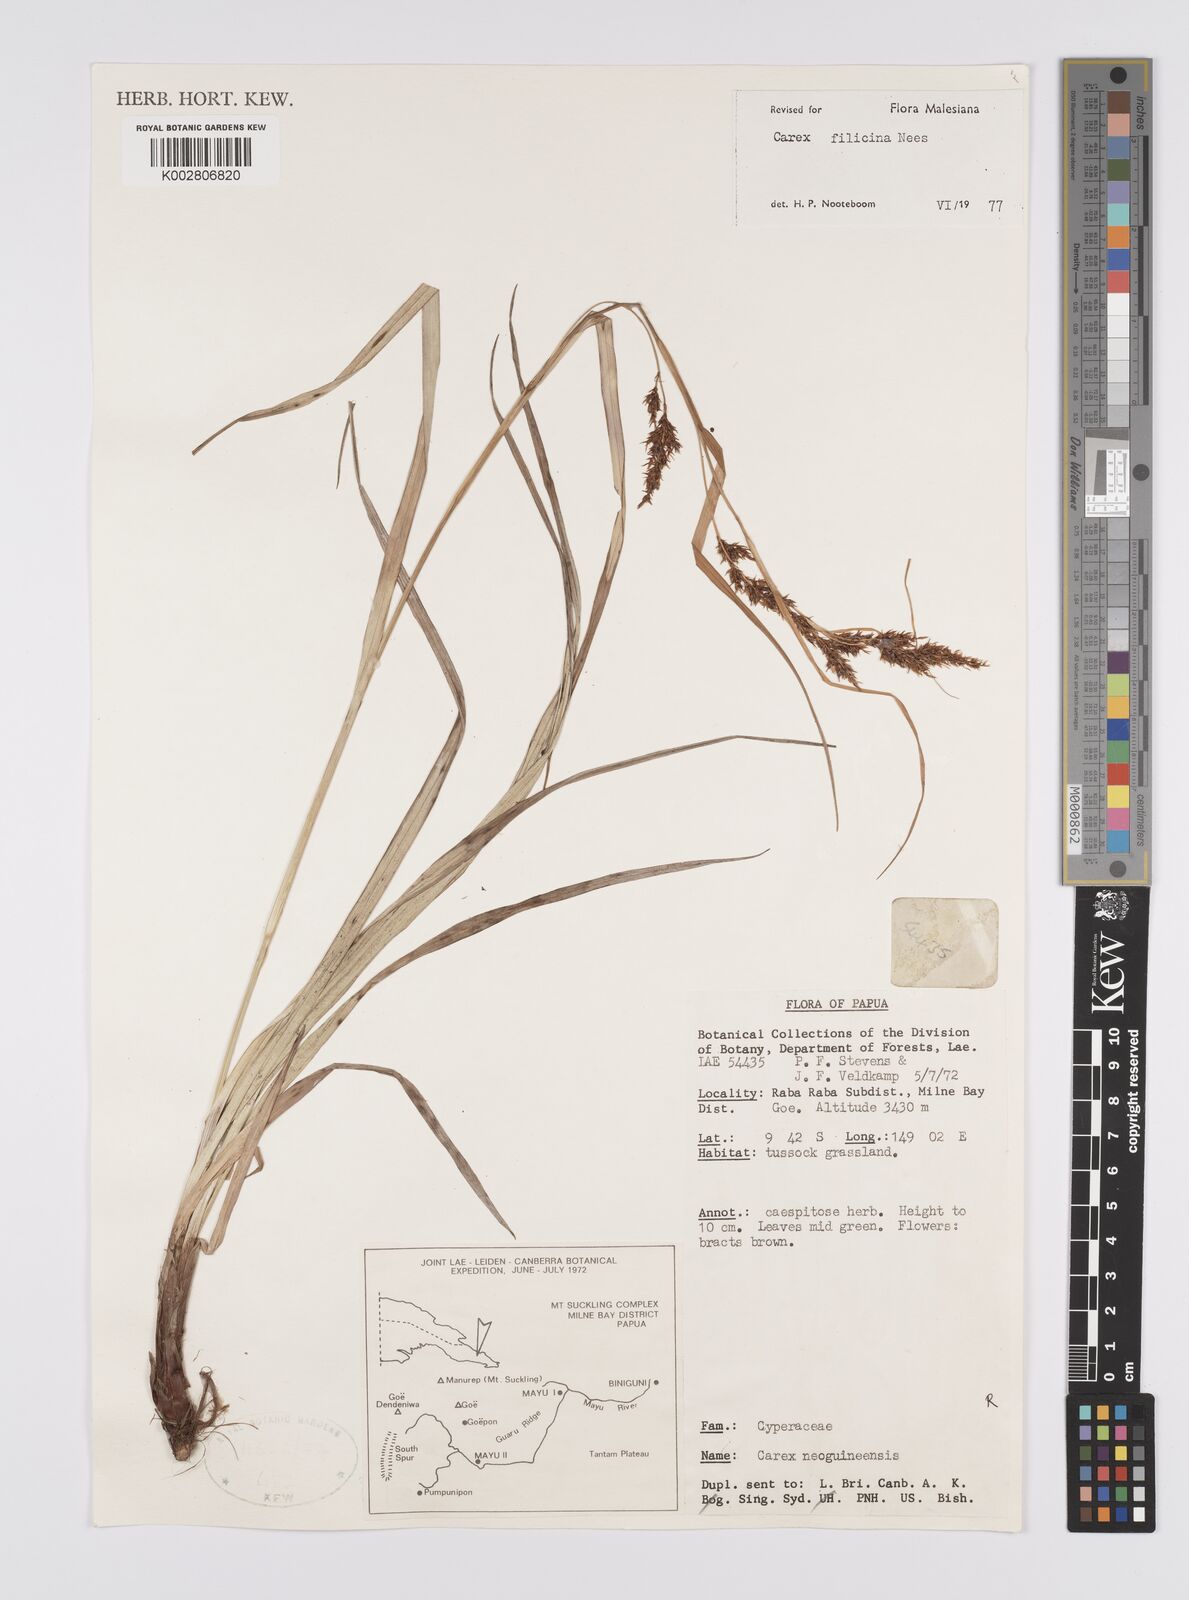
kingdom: Plantae
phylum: Tracheophyta
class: Liliopsida
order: Poales
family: Cyperaceae
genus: Carex
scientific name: Carex filicina
